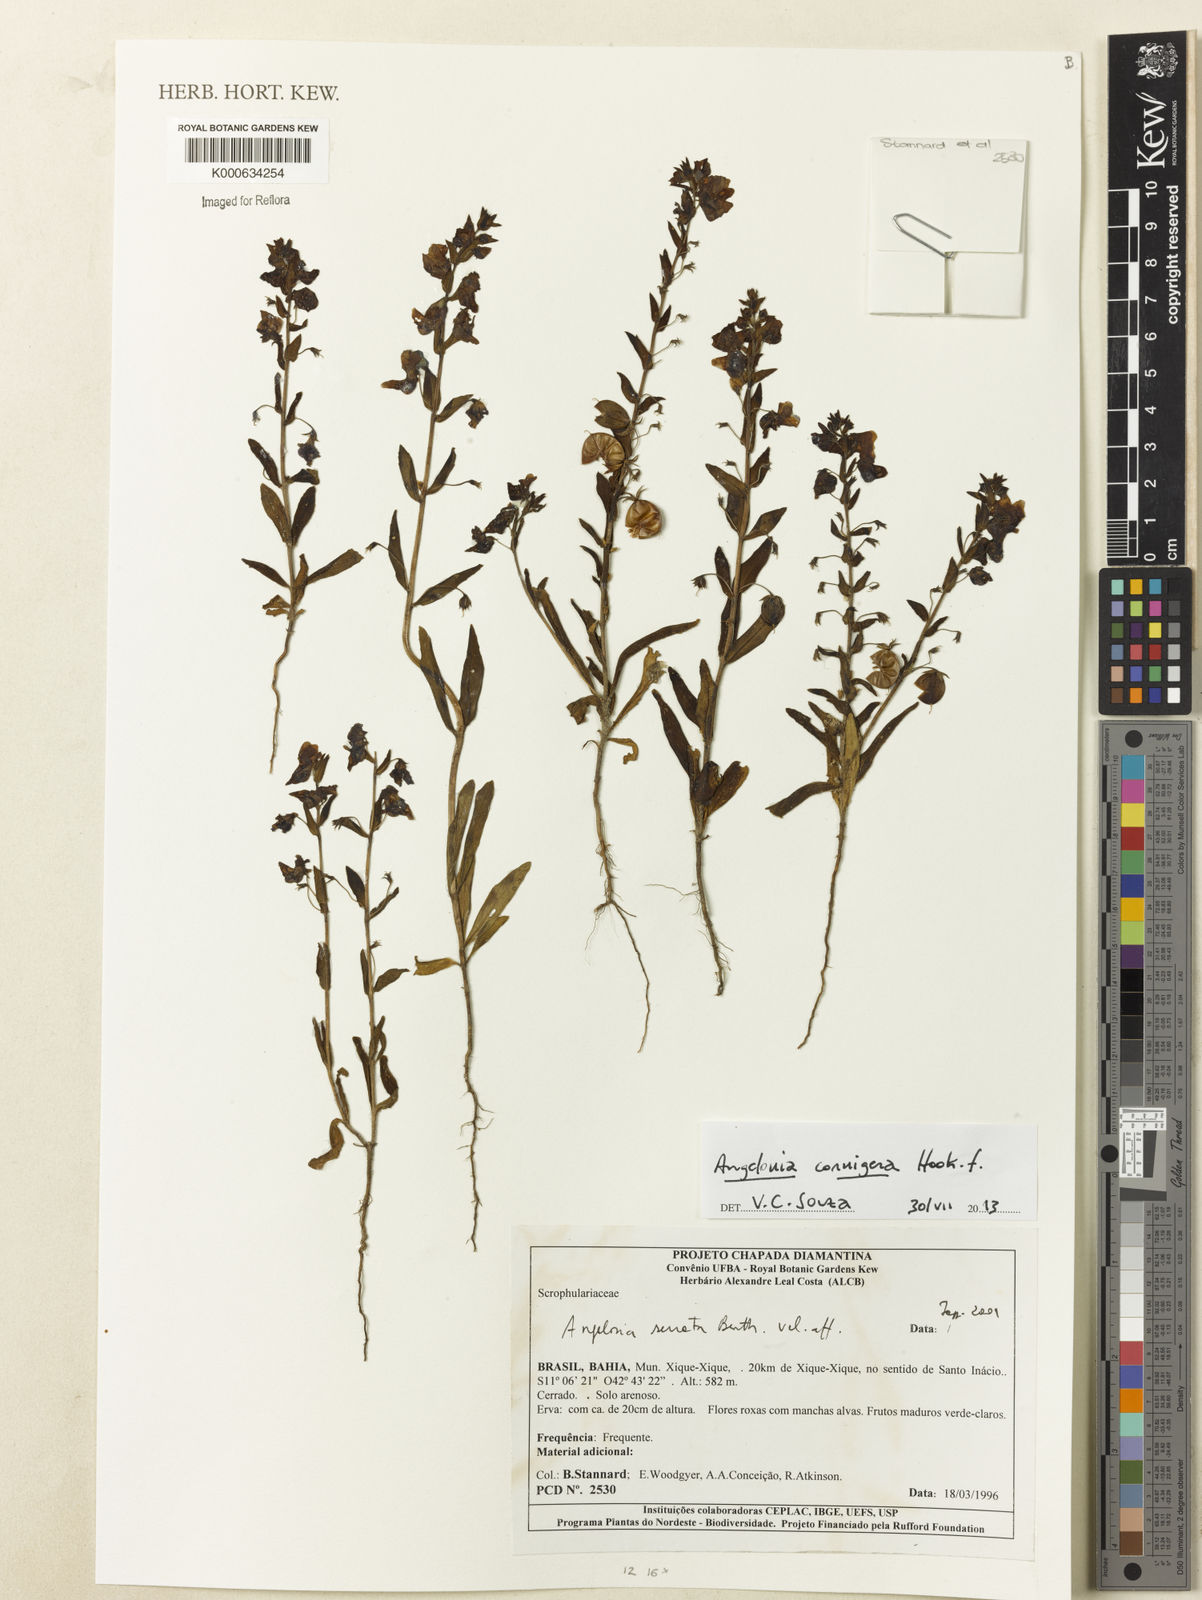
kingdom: Plantae
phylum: Tracheophyta
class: Magnoliopsida
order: Lamiales
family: Plantaginaceae
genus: Angelonia
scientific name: Angelonia
